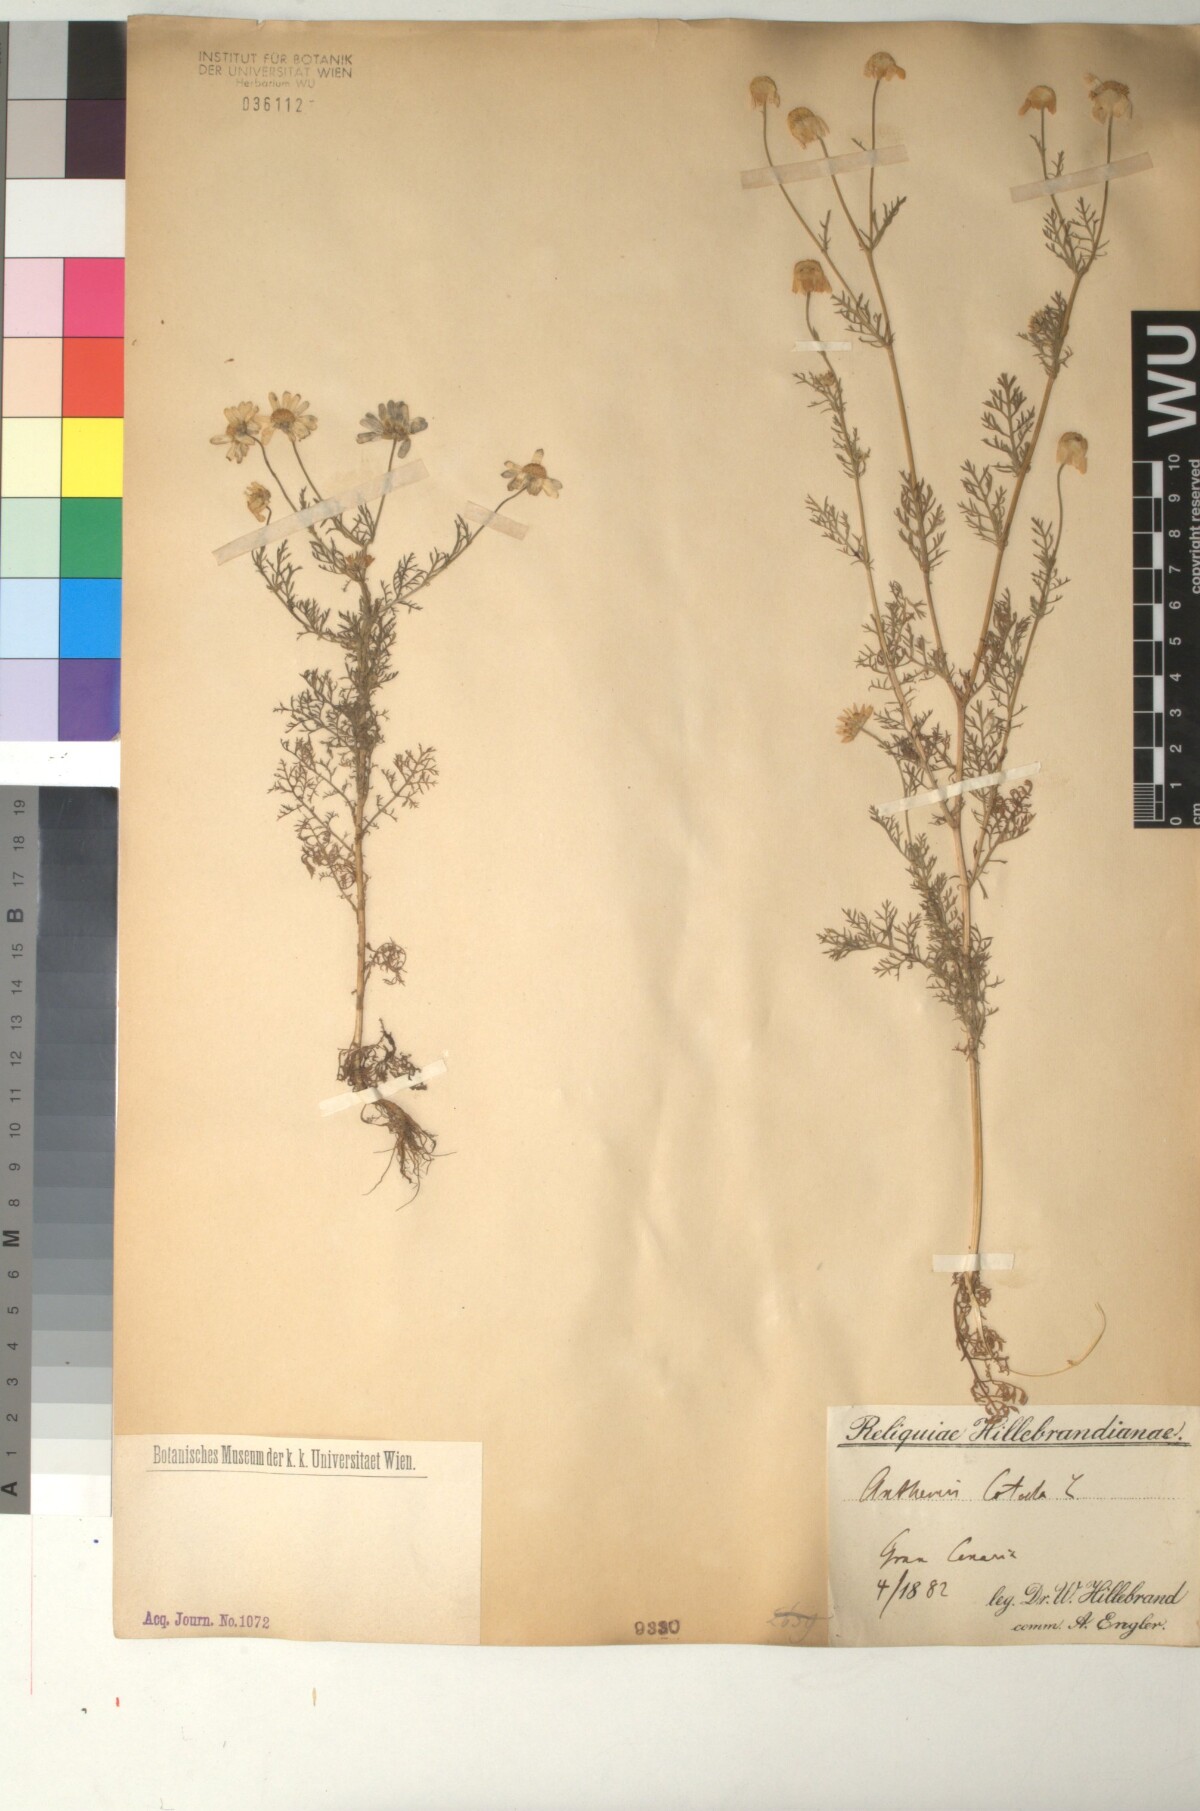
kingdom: Plantae
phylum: Tracheophyta
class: Magnoliopsida
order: Asterales
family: Asteraceae
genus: Anthemis
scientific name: Anthemis cotula
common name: Stinking chamomile
